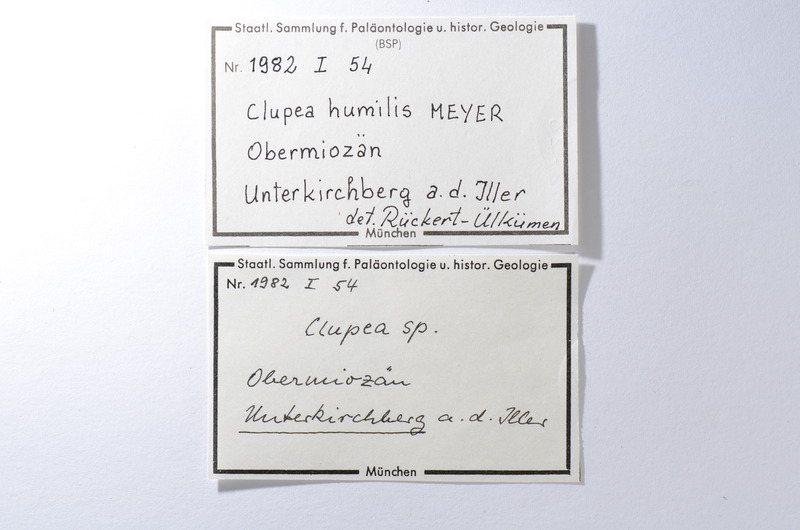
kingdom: Animalia
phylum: Chordata
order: Clupeiformes
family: Clupeidae
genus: Clupea
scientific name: Clupea
